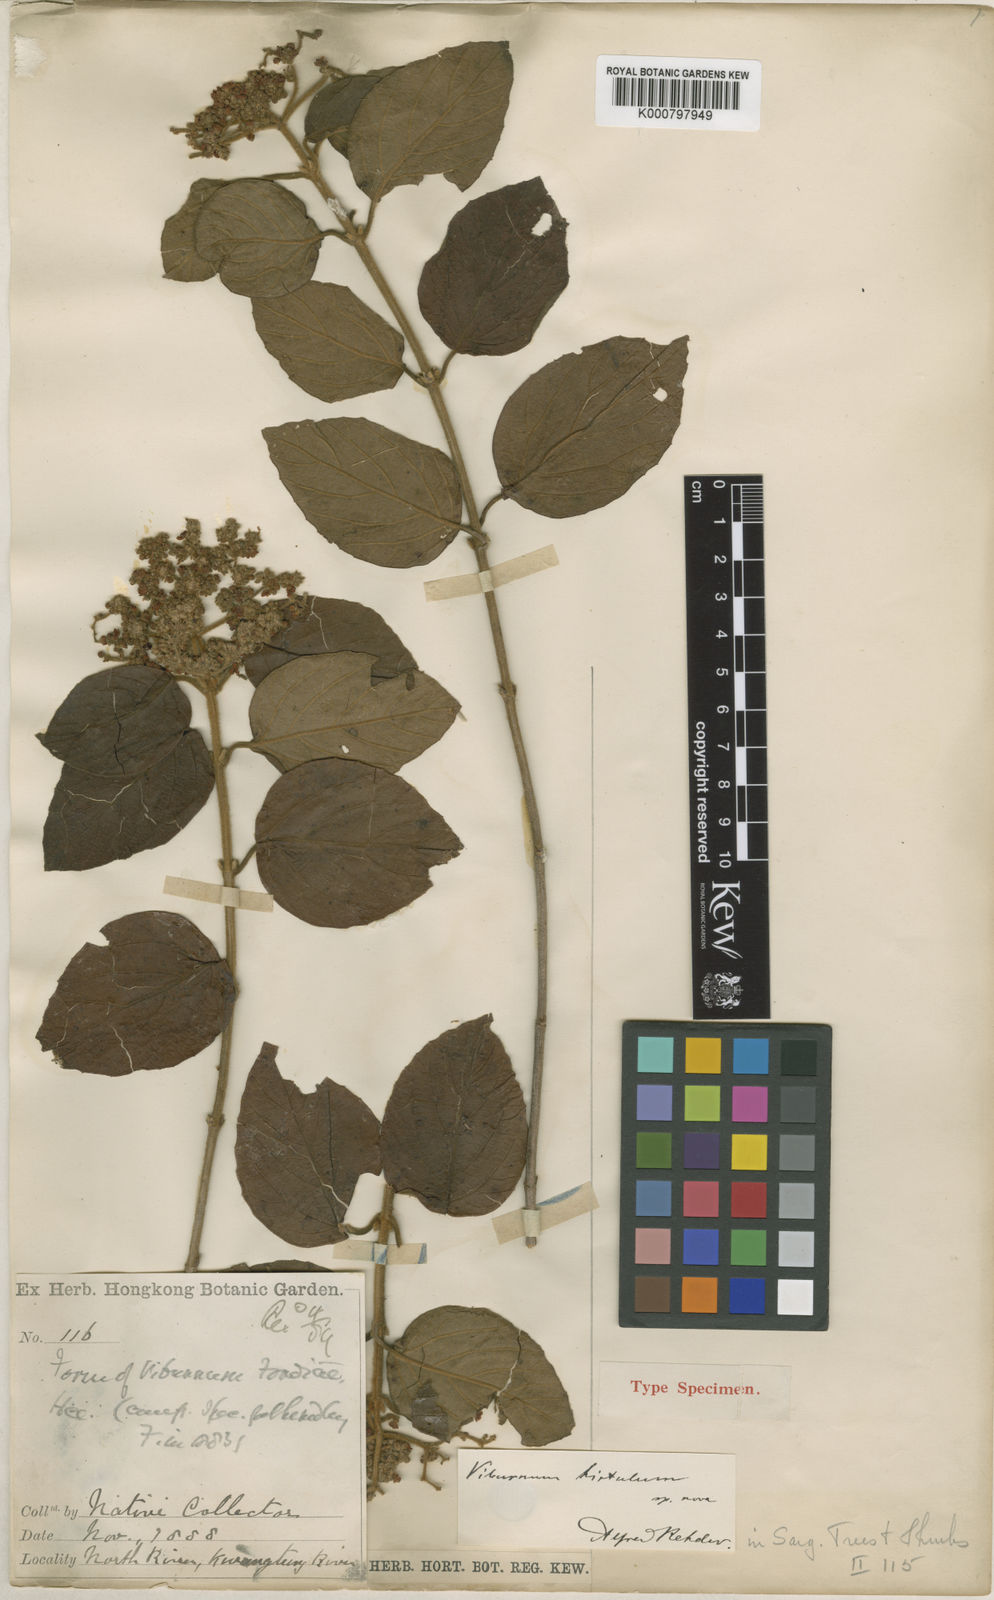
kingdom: Plantae
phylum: Tracheophyta
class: Magnoliopsida
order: Dipsacales
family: Viburnaceae
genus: Viburnum
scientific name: Viburnum fordiae
